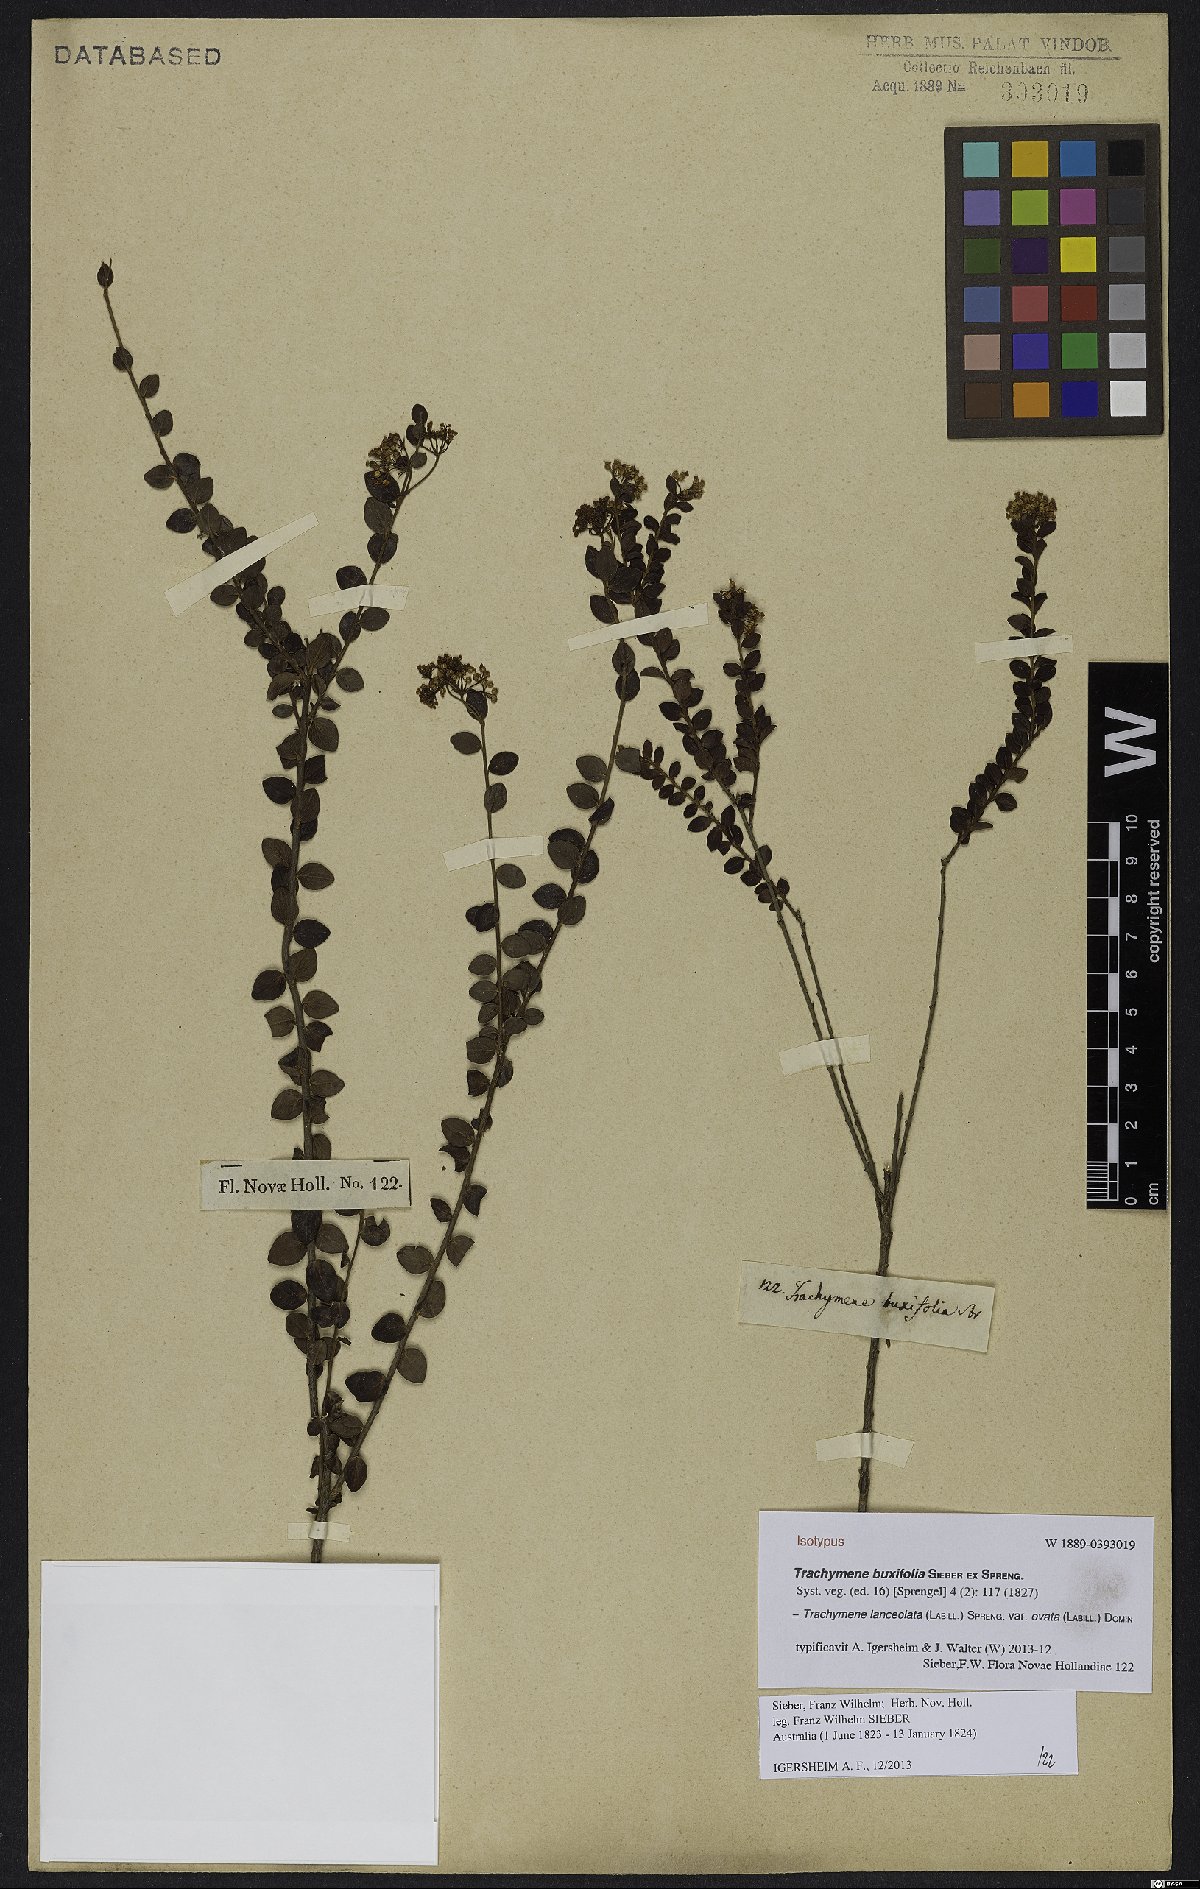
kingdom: Plantae
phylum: Tracheophyta
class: Magnoliopsida
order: Apiales
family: Apiaceae
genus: Platysace
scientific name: Platysace lanceolata
